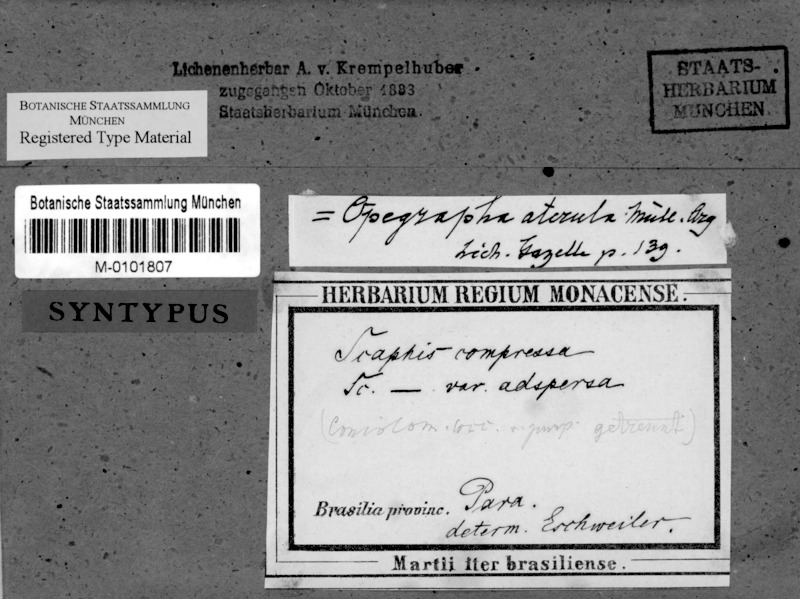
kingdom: Fungi
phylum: Ascomycota
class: Arthoniomycetes
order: Arthoniales
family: Opegraphaceae
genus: Opegrapha
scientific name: Opegrapha
